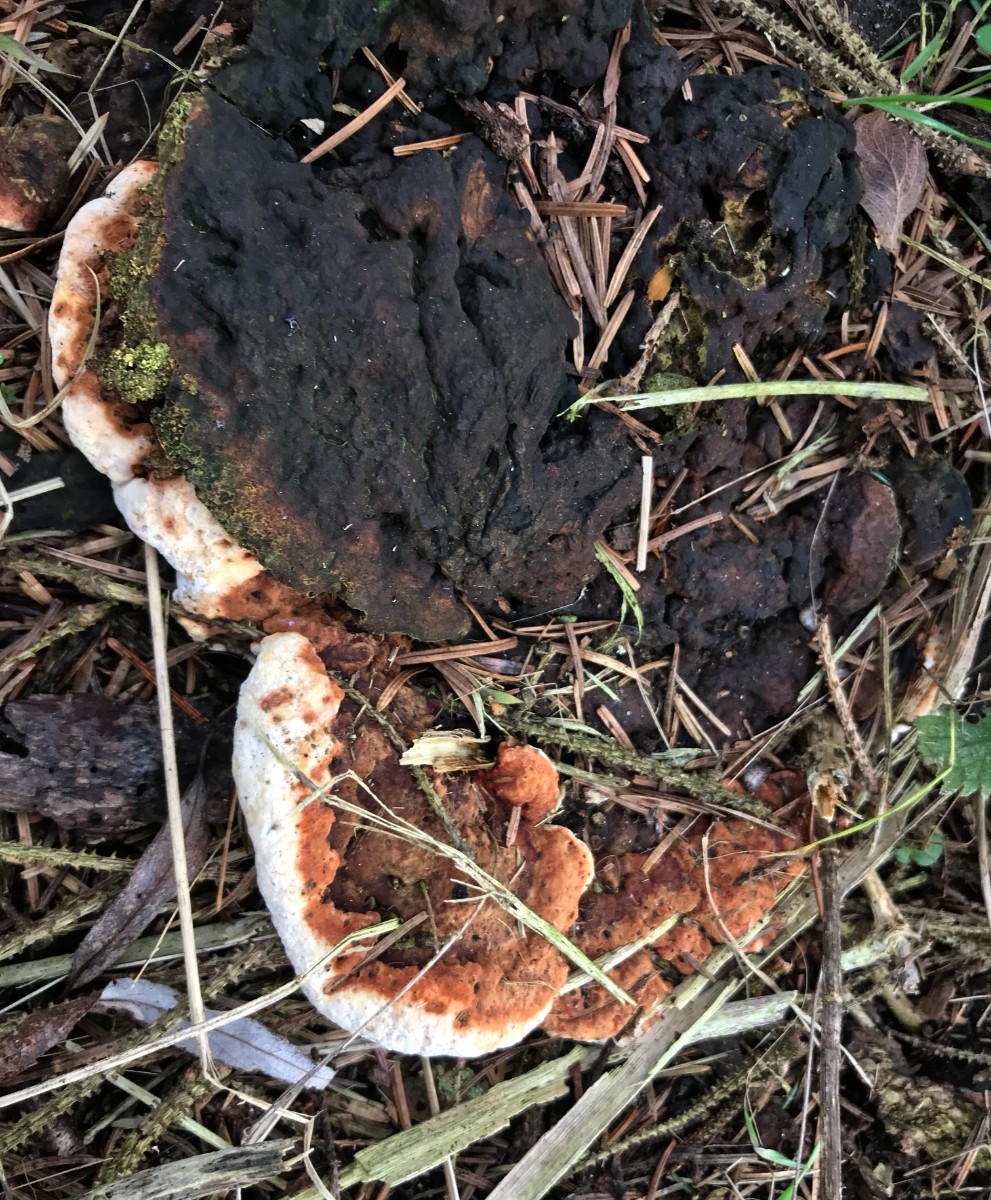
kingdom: Fungi
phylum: Basidiomycota
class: Agaricomycetes
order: Russulales
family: Bondarzewiaceae
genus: Heterobasidion
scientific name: Heterobasidion annosum
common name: almindelig rodfordærver
